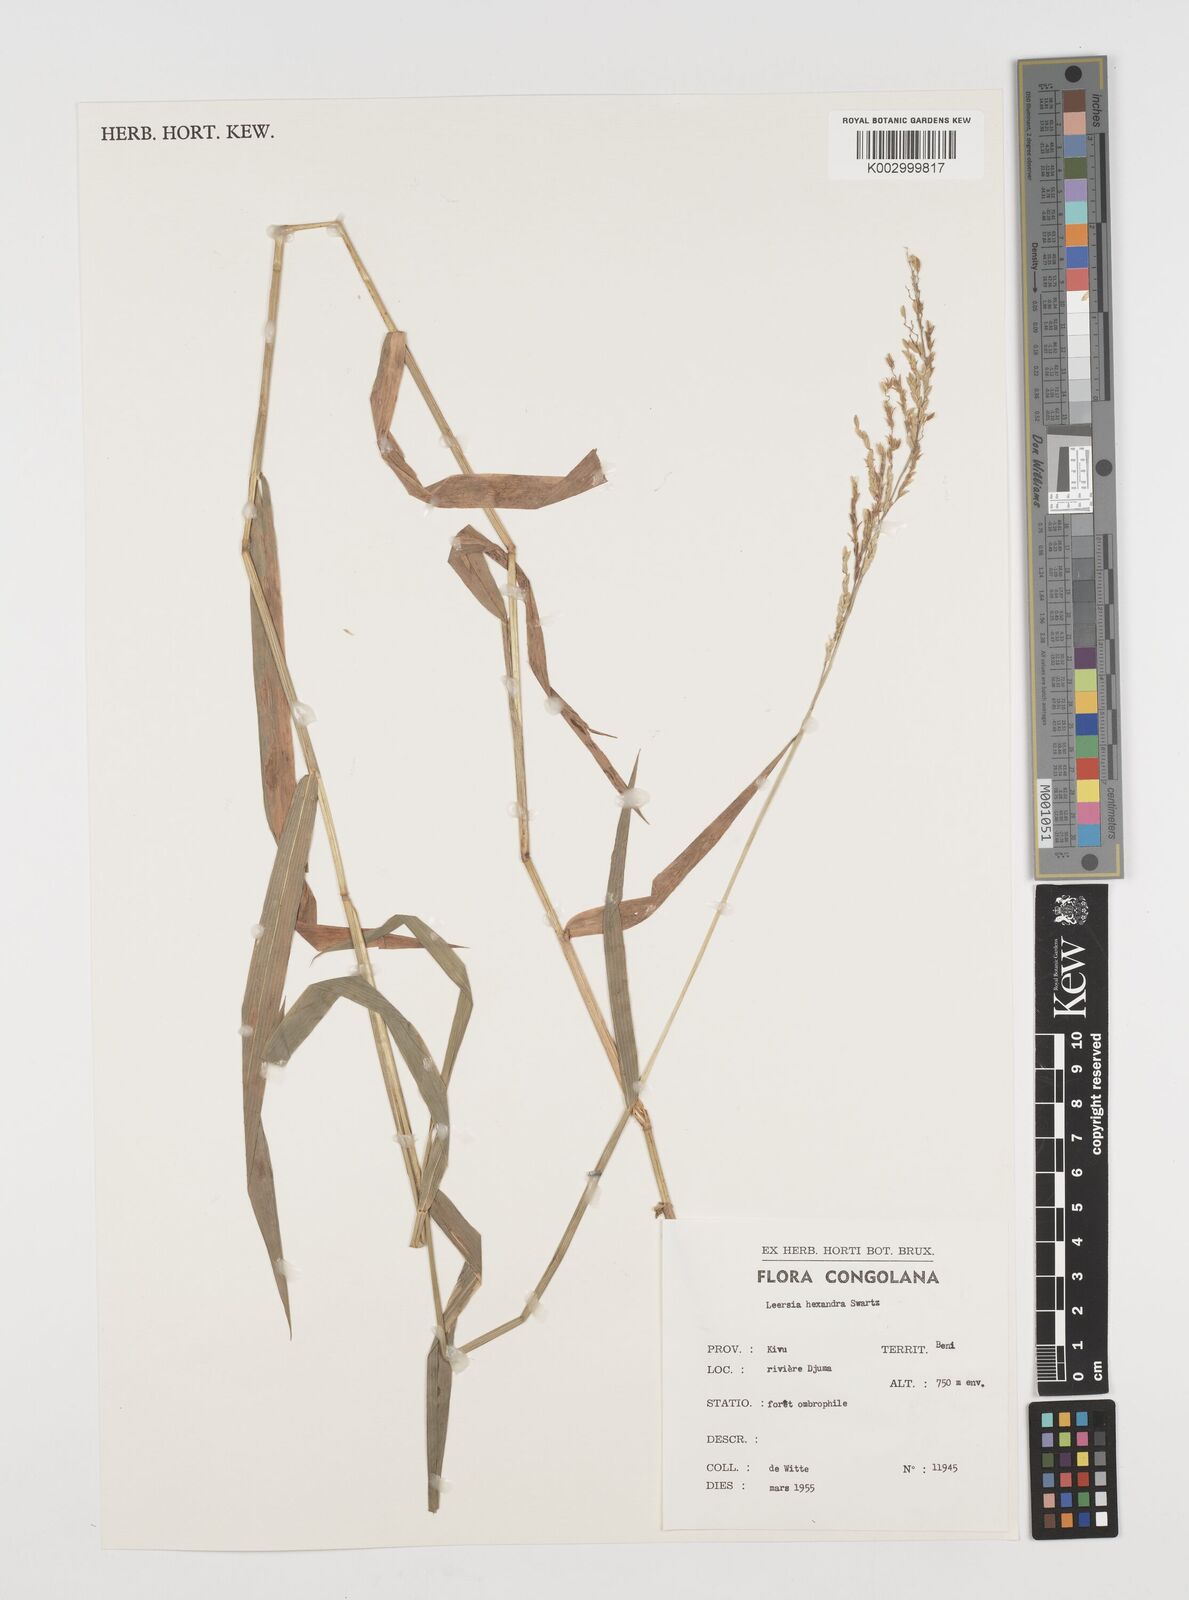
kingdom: Plantae
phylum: Tracheophyta
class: Liliopsida
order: Poales
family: Poaceae
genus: Leersia
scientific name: Leersia hexandra
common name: Southern cut grass
